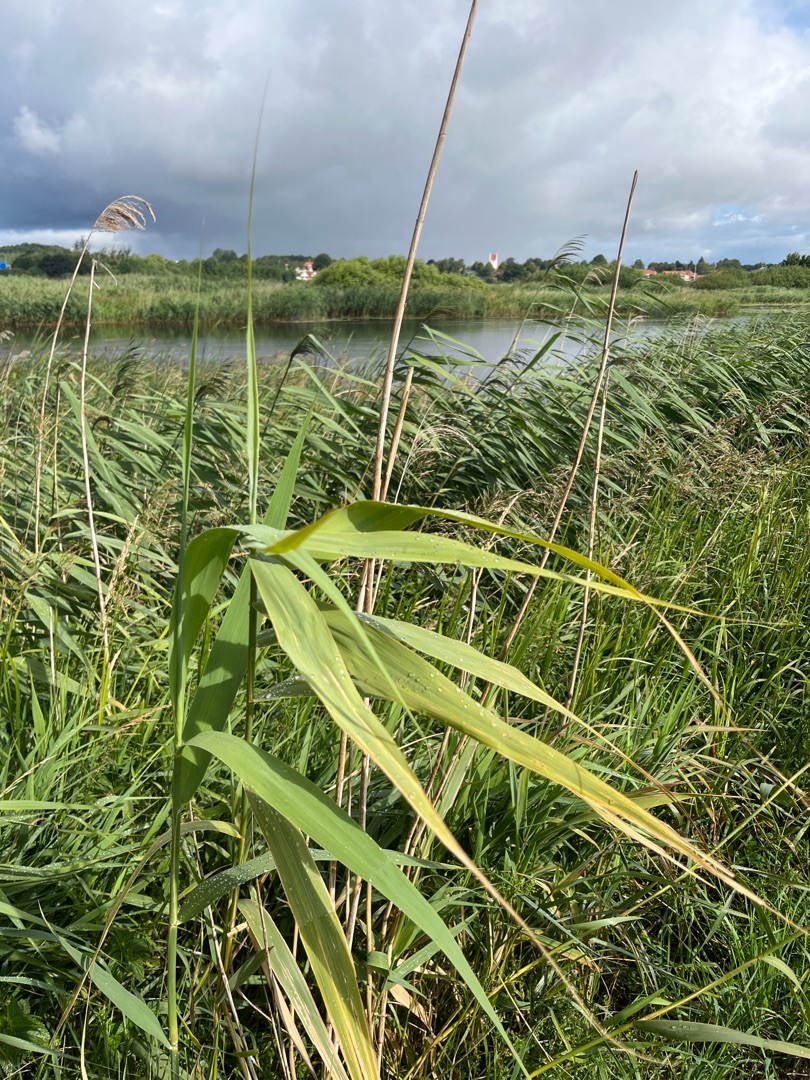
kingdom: Plantae
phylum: Tracheophyta
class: Liliopsida
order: Poales
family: Poaceae
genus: Phragmites
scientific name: Phragmites australis
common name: Tagrør
